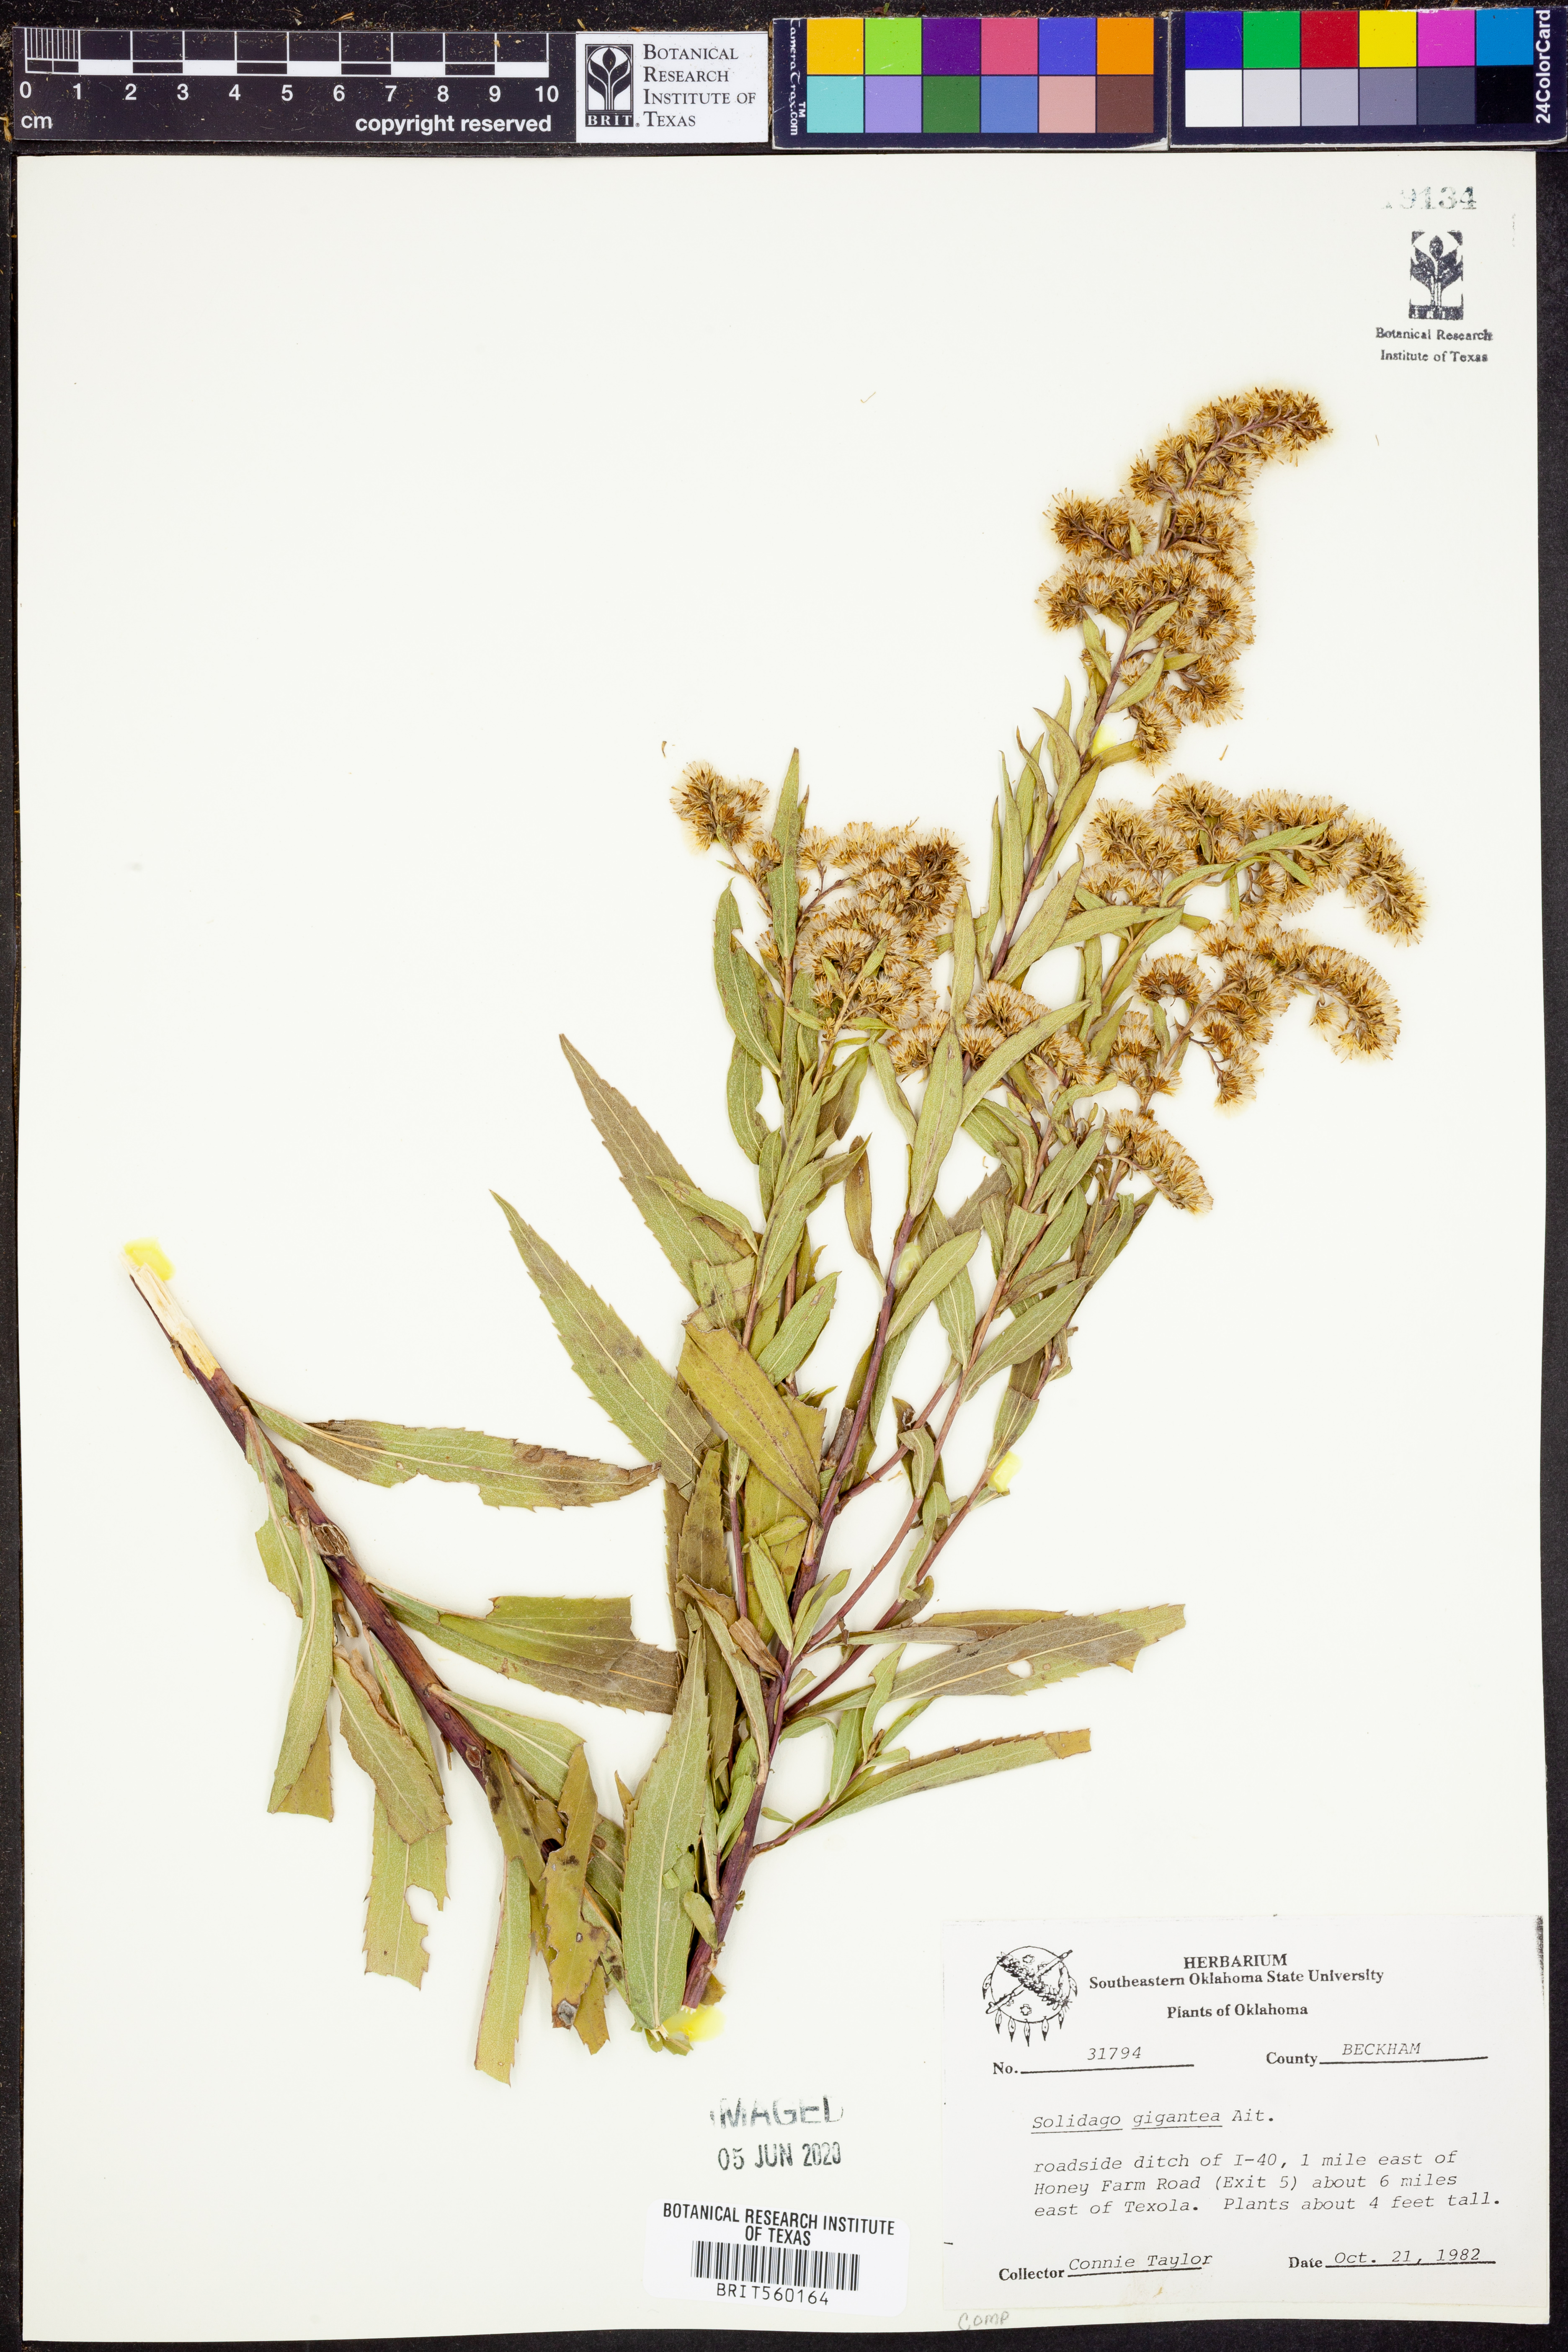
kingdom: Plantae
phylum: Tracheophyta
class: Magnoliopsida
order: Asterales
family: Asteraceae
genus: Solidago
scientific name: Solidago gigantea
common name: Giant goldenrod
